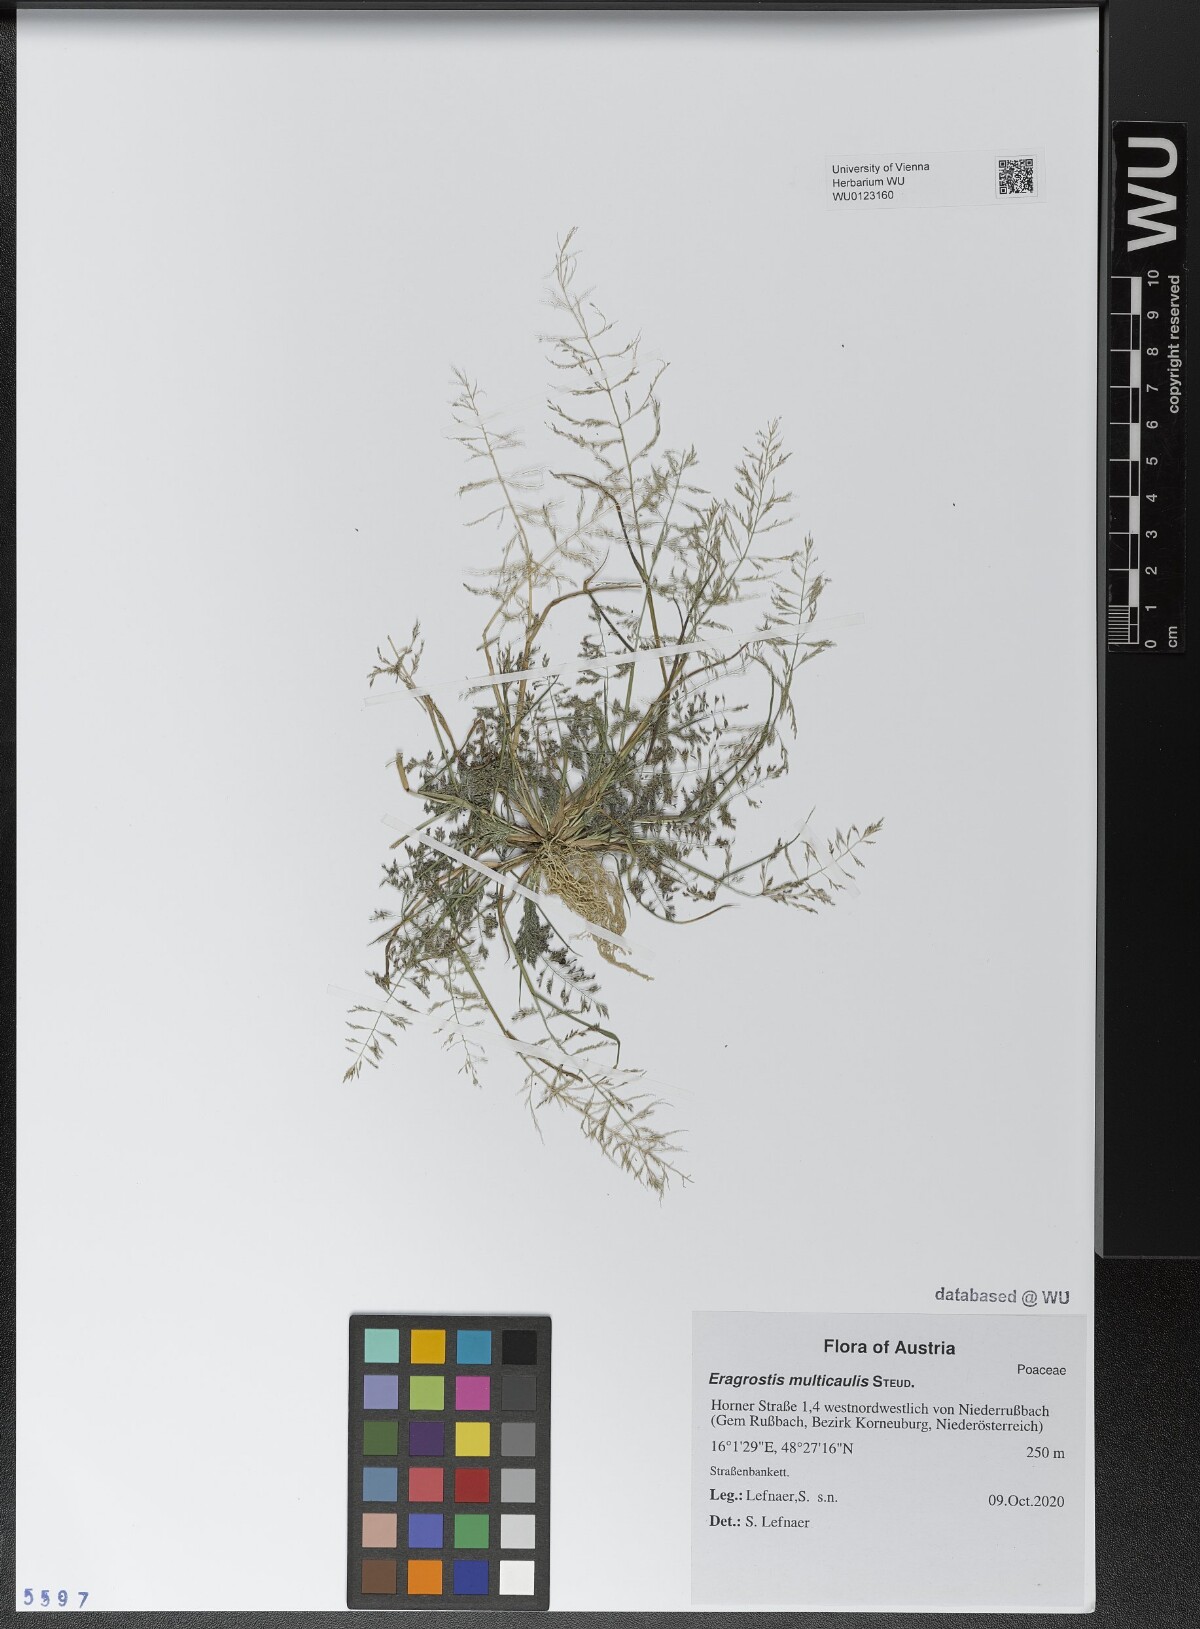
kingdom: Plantae
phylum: Tracheophyta
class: Liliopsida
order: Poales
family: Poaceae
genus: Eragrostis
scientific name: Eragrostis multicaulis
